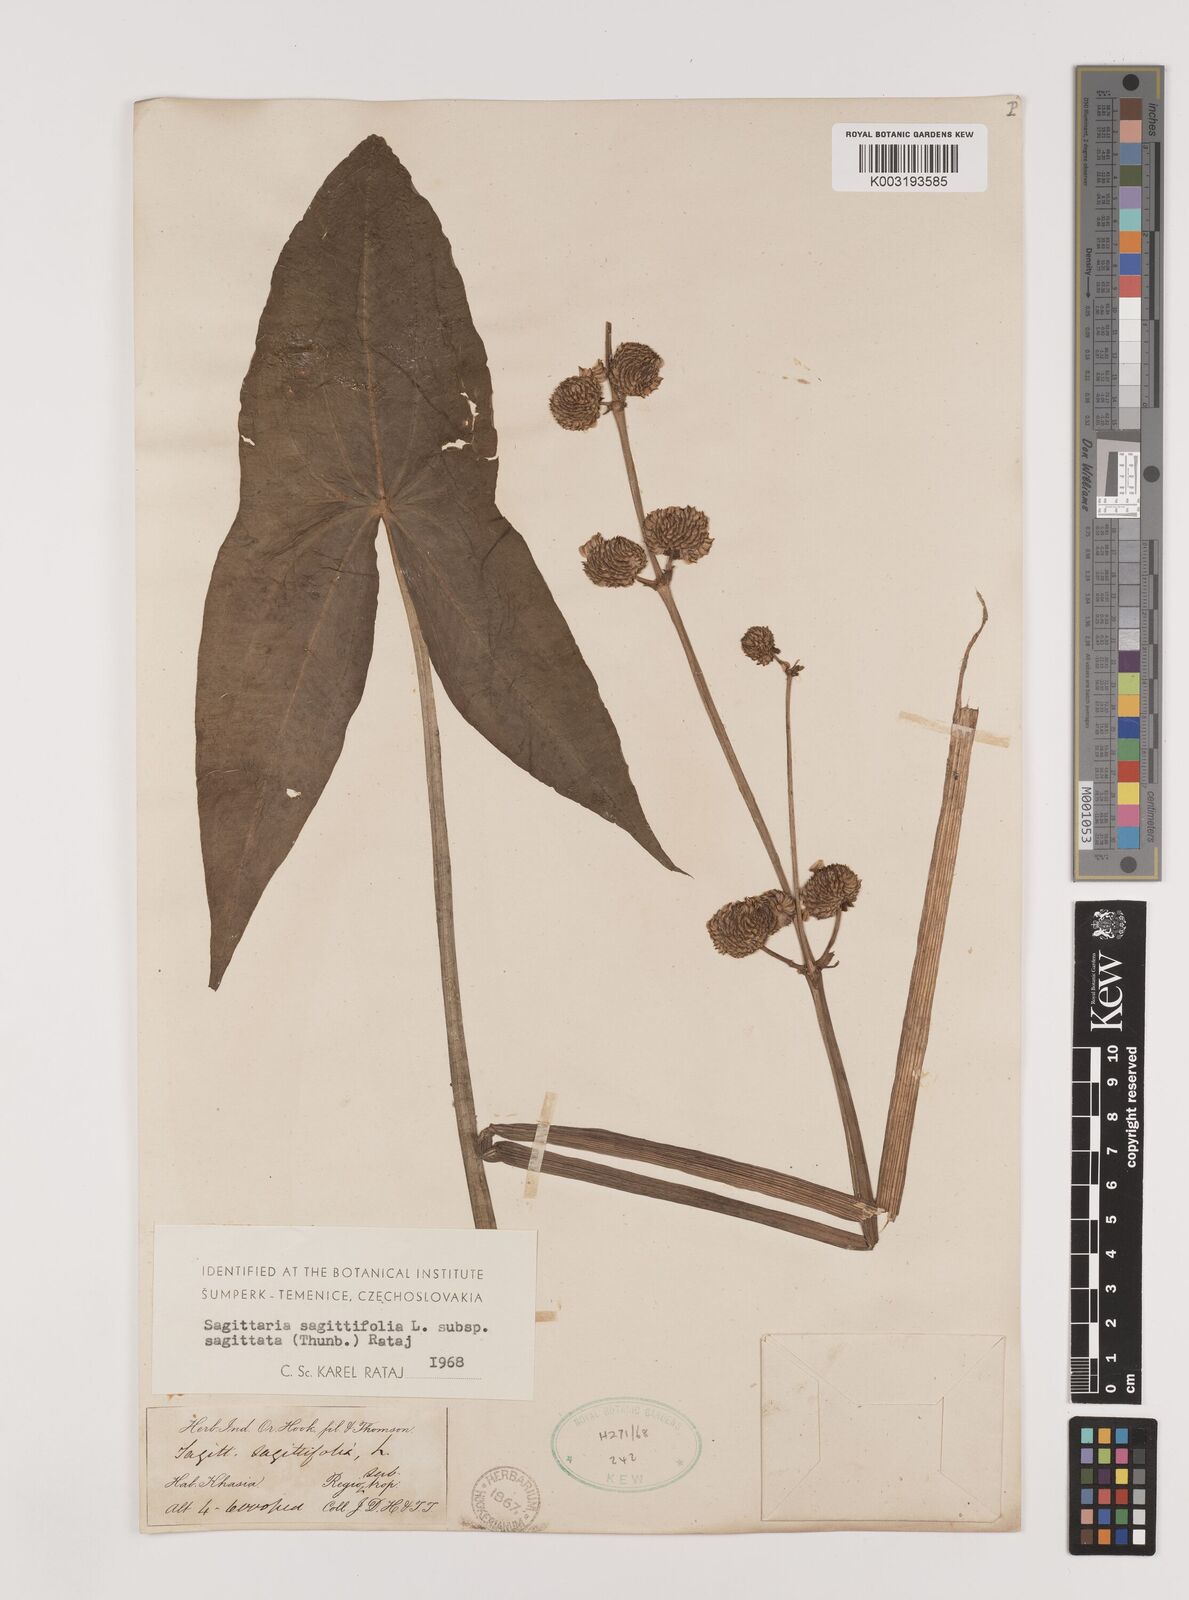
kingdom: Plantae
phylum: Tracheophyta
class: Liliopsida
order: Alismatales
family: Alismataceae
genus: Sagittaria
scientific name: Sagittaria sagittifolia
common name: Arrowhead
